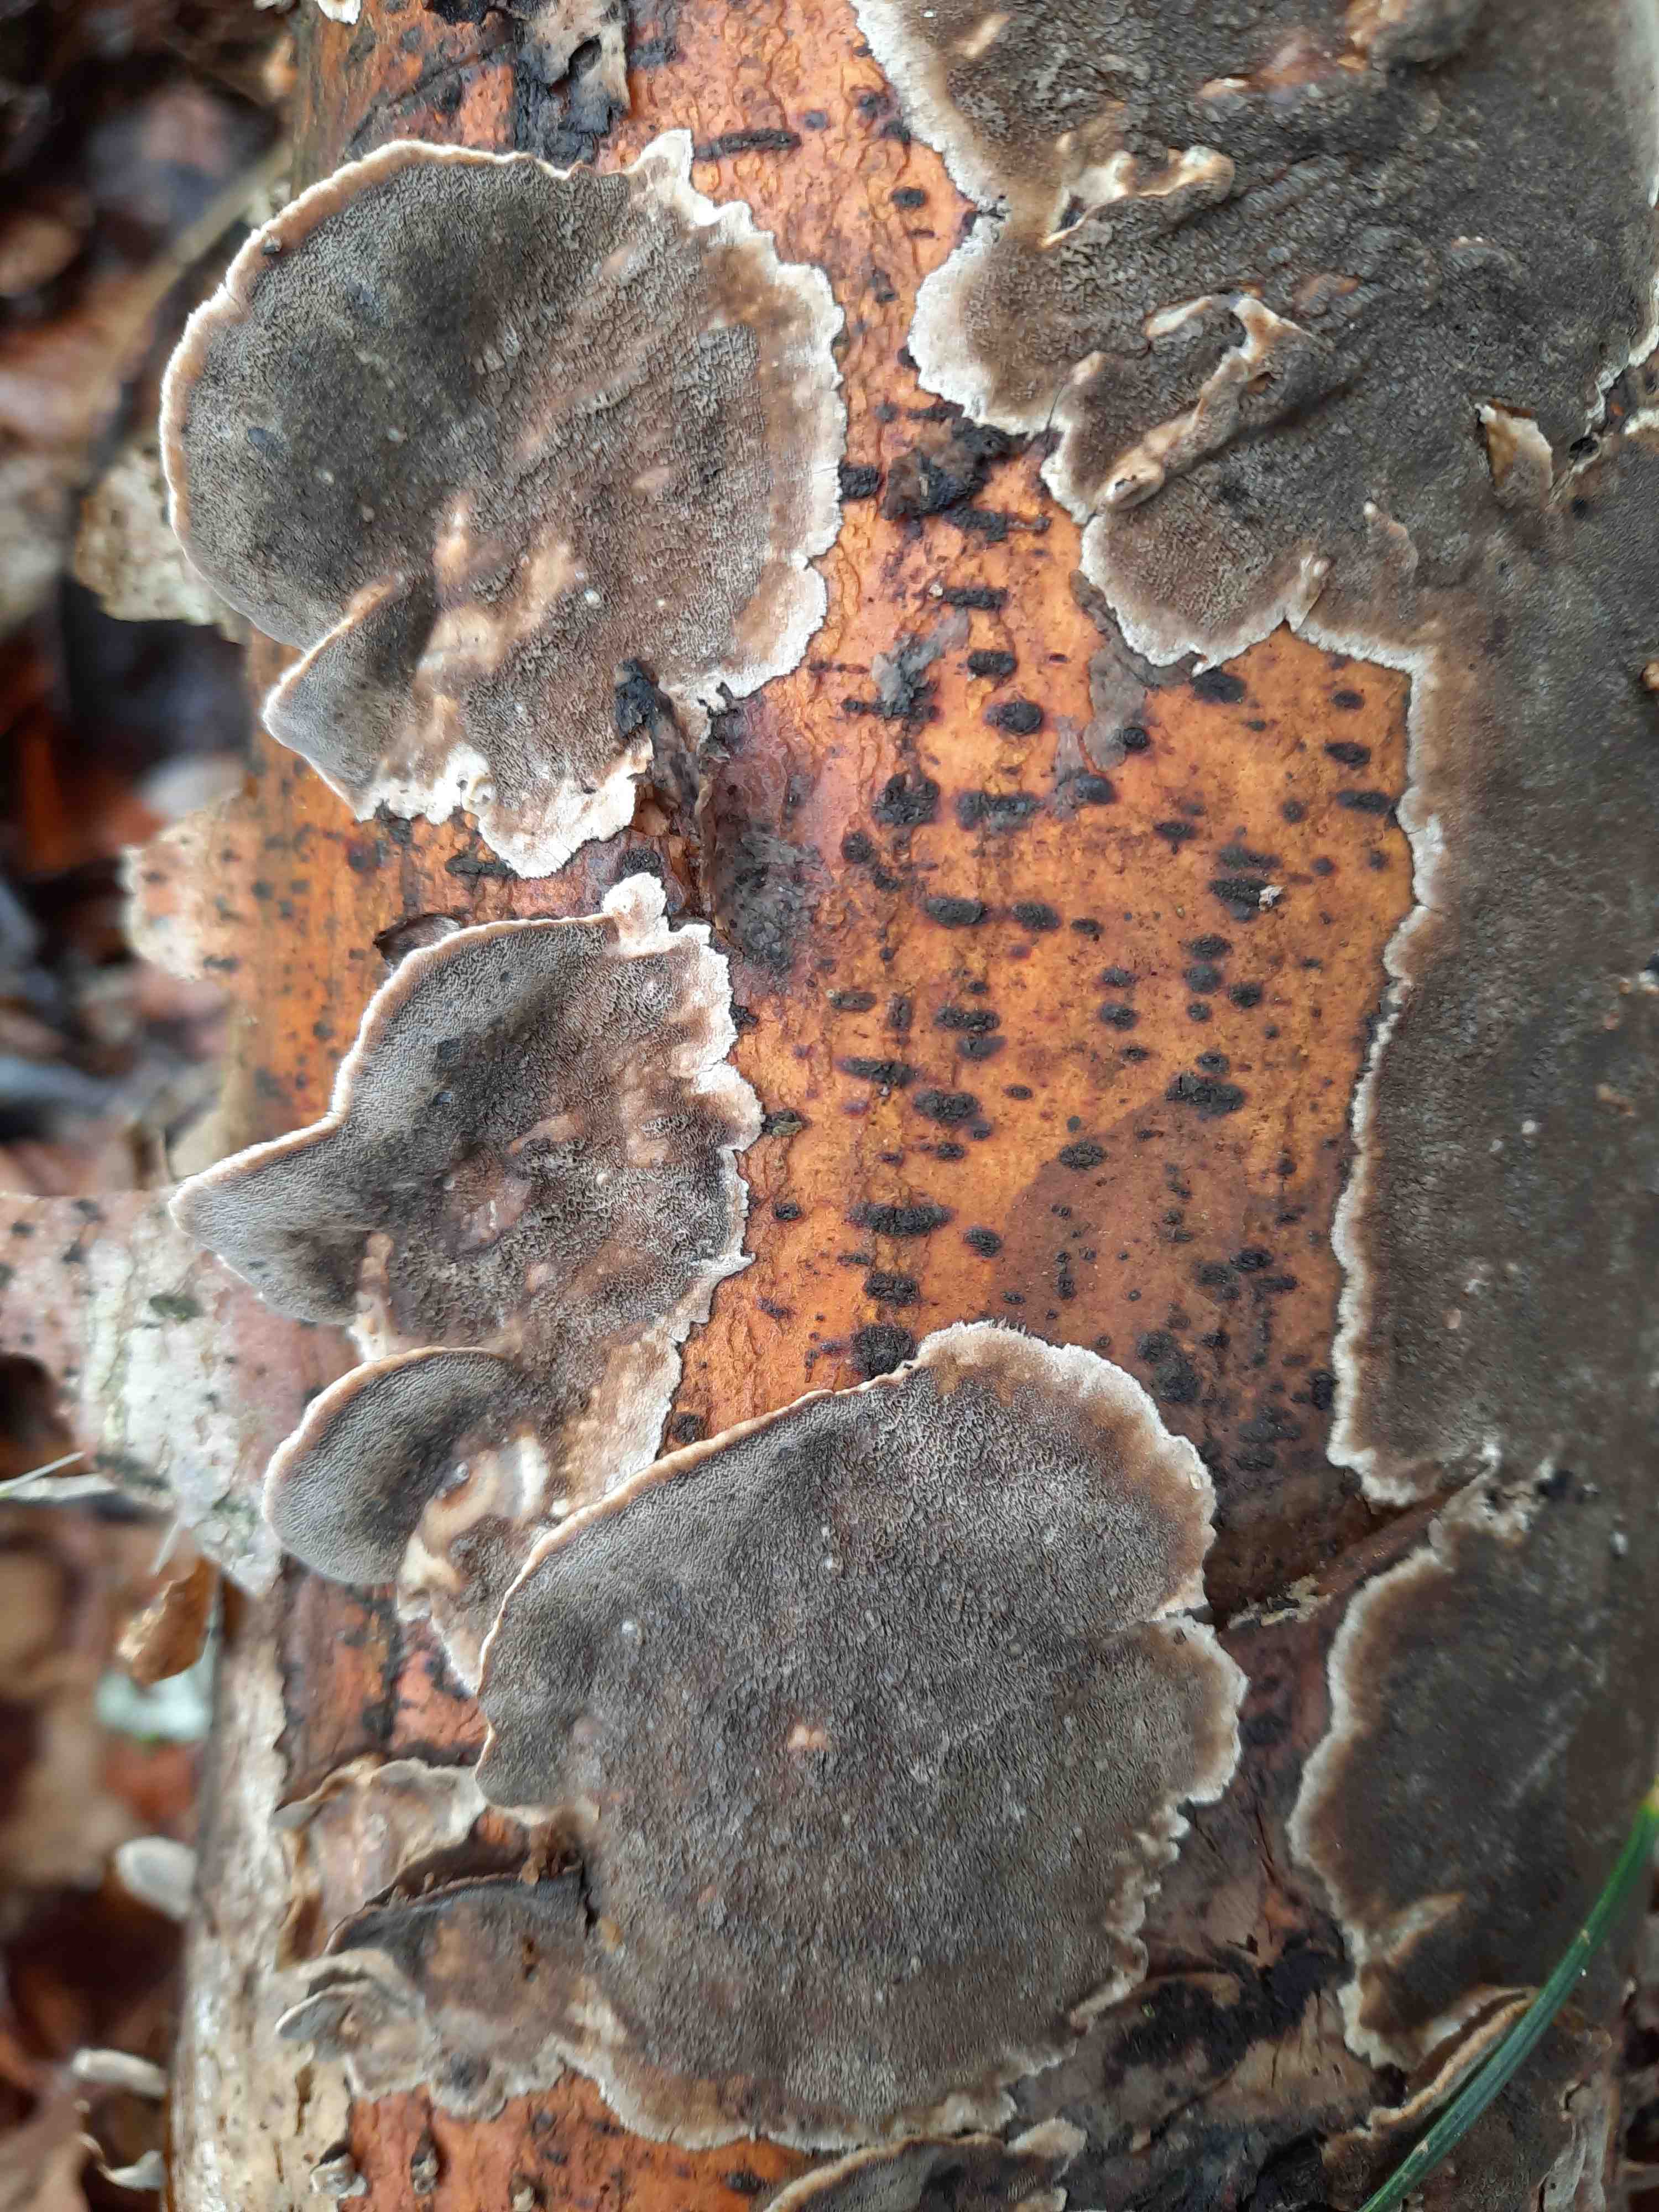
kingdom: Fungi
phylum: Basidiomycota
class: Agaricomycetes
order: Polyporales
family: Phanerochaetaceae
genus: Bjerkandera
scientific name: Bjerkandera adusta
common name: sveden sodporesvamp
